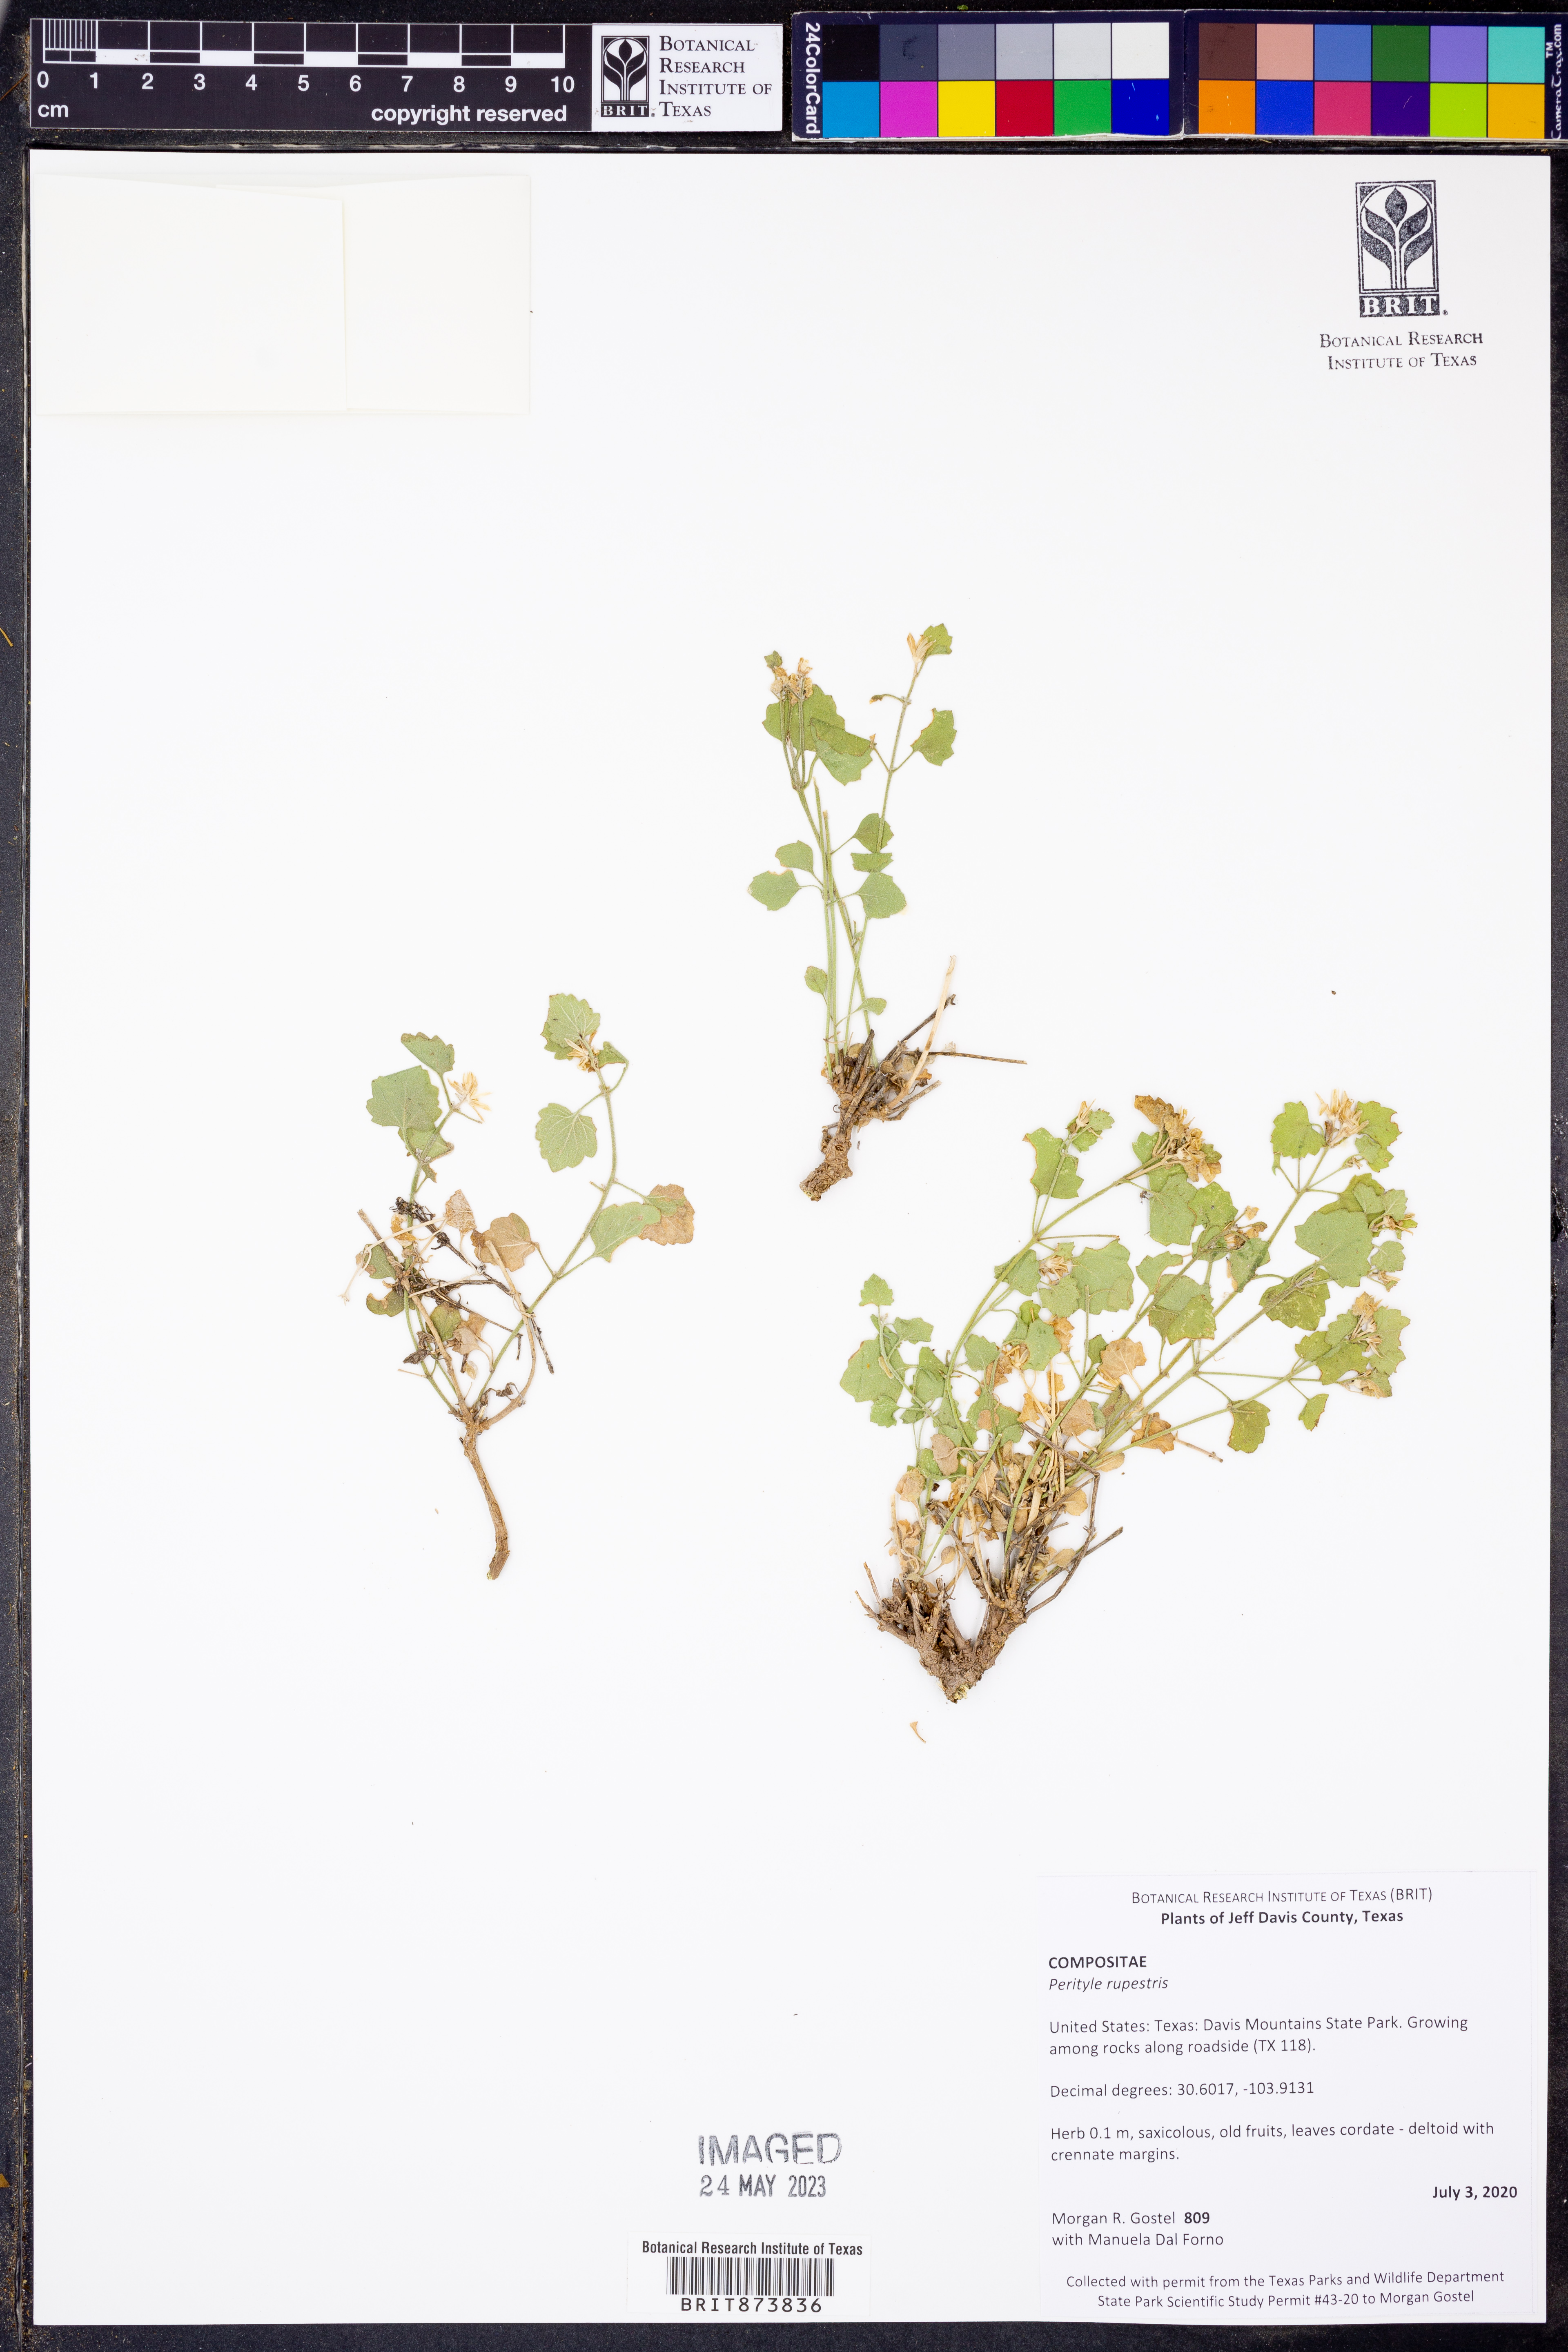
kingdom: Plantae
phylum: Tracheophyta
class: Magnoliopsida
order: Asterales
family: Asteraceae
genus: Laphamia
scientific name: Laphamia rupestris
